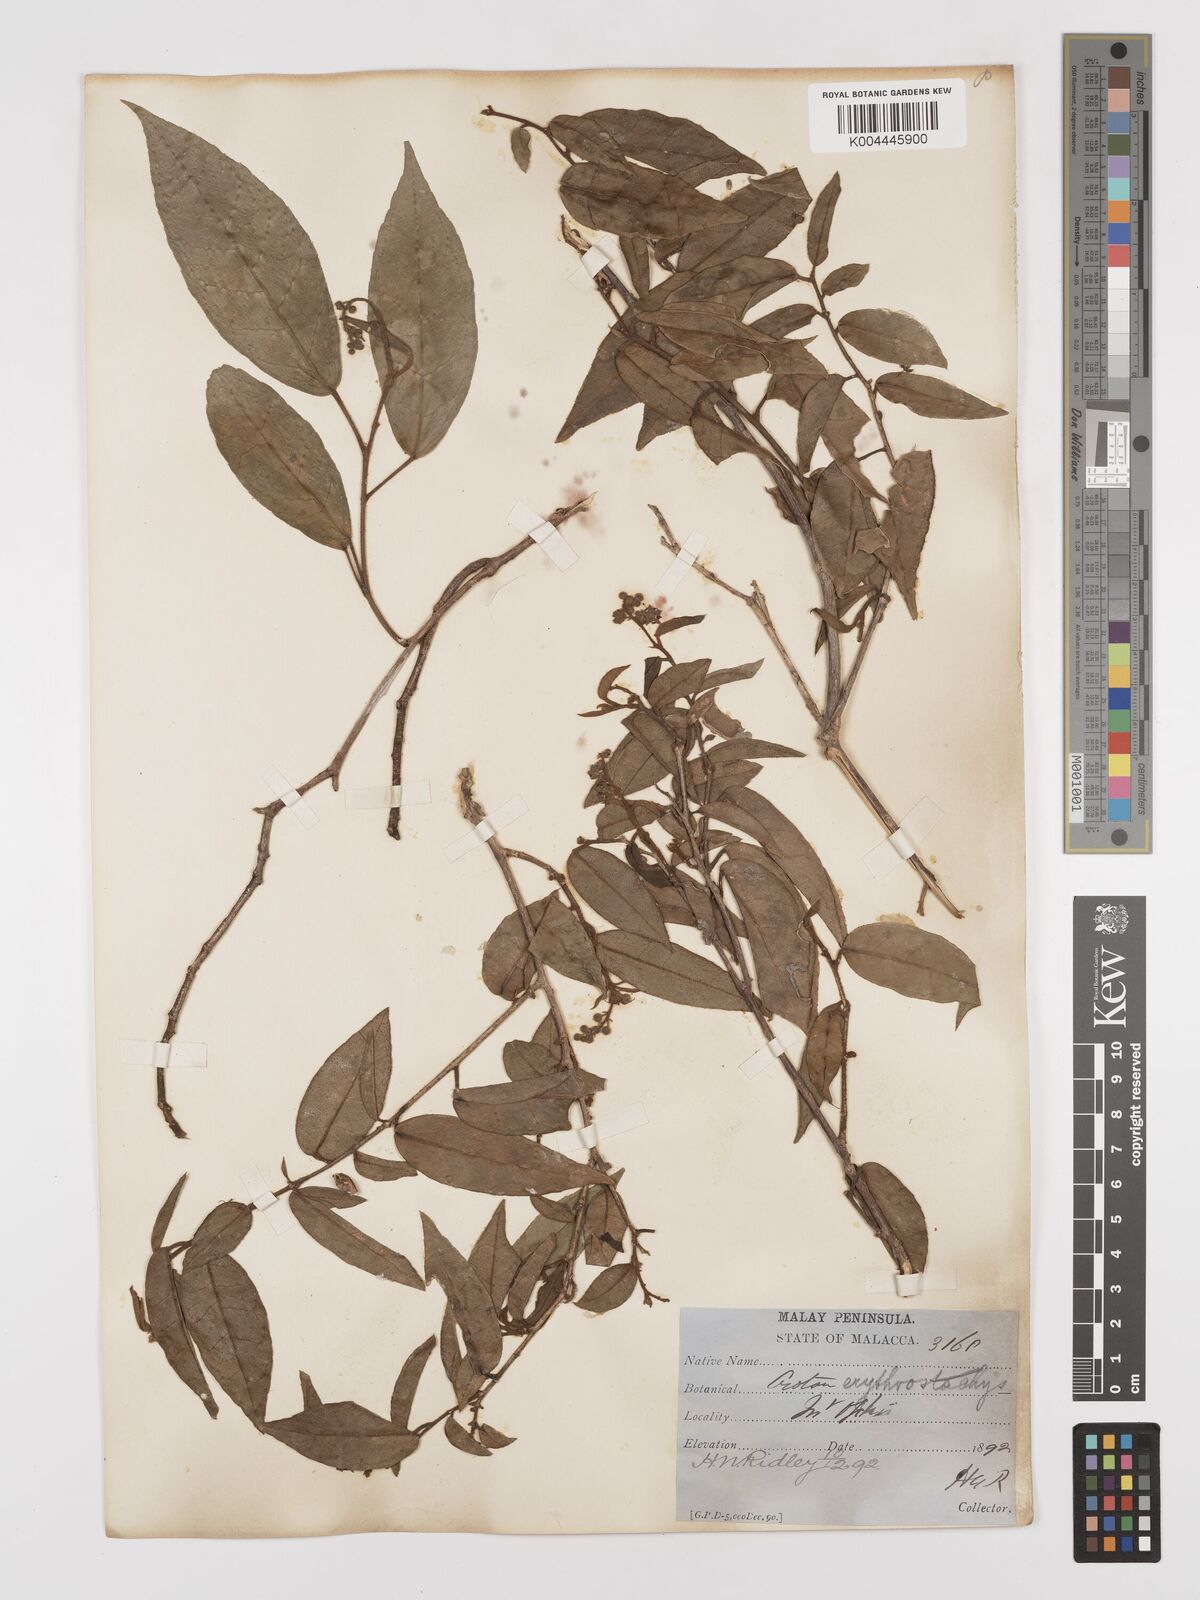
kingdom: Plantae
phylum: Tracheophyta
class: Magnoliopsida
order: Malpighiales
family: Euphorbiaceae
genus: Croton
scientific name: Croton erythrostachys
